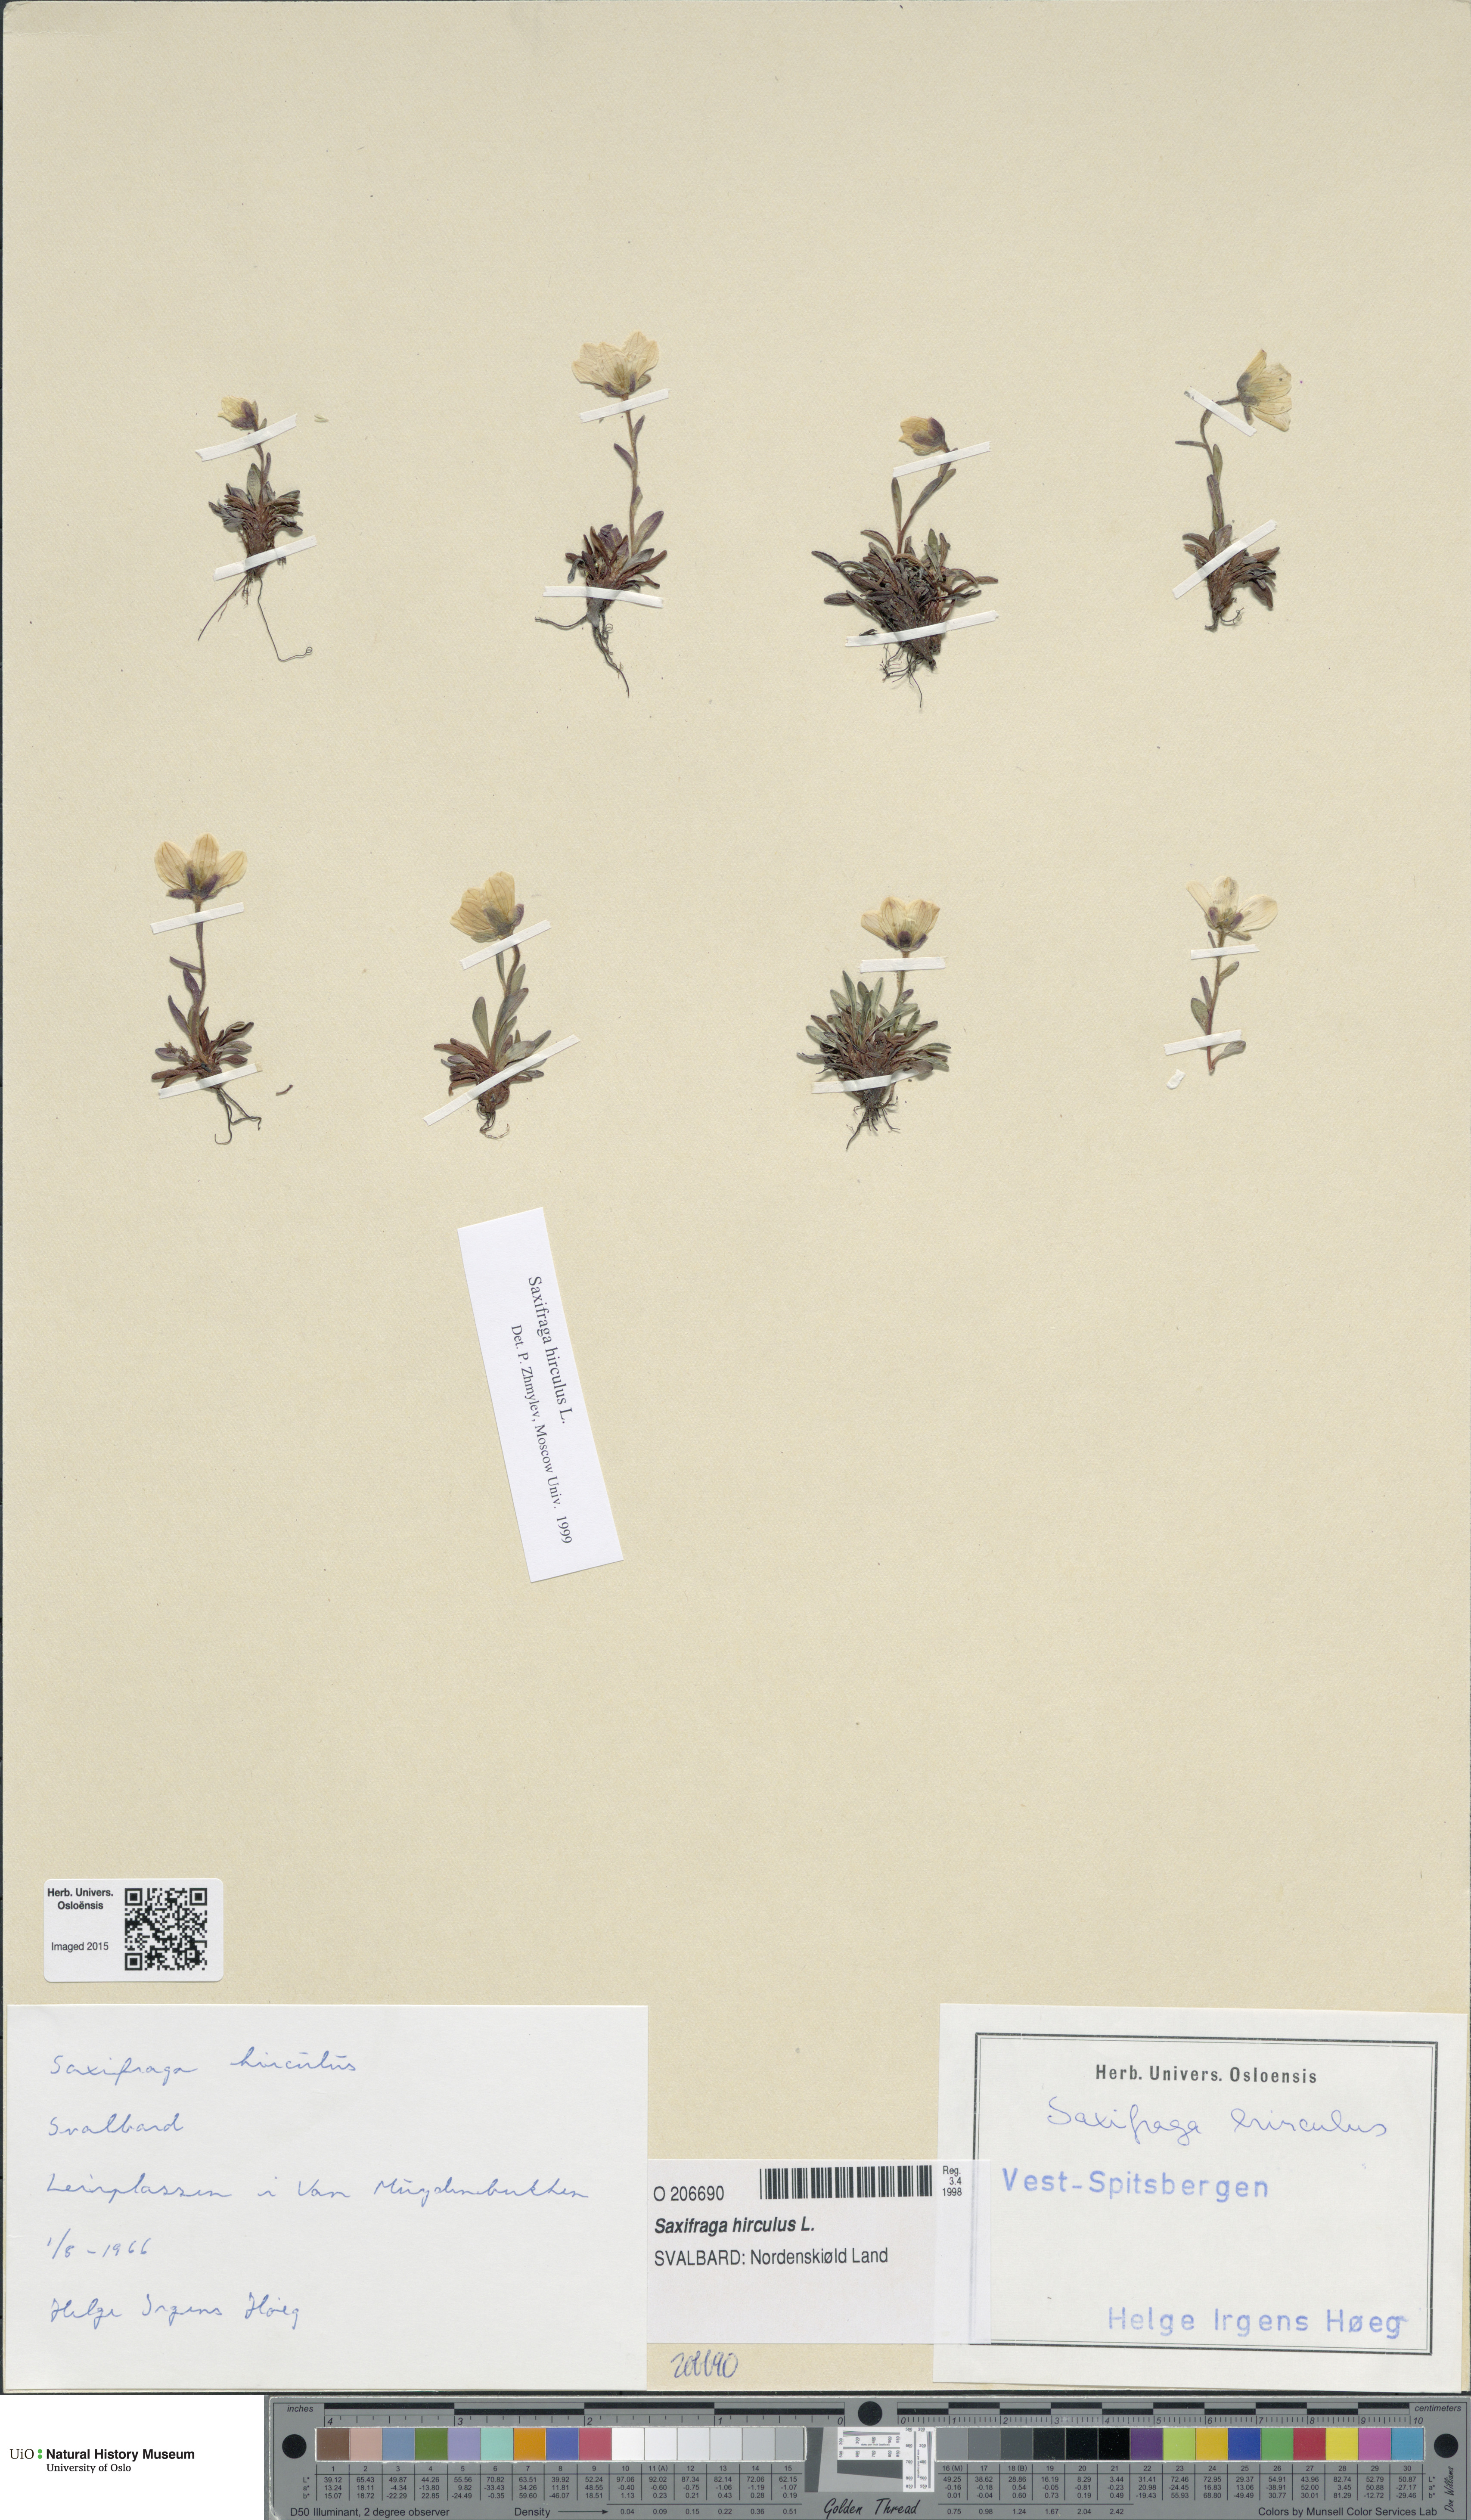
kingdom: Plantae
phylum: Tracheophyta
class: Magnoliopsida
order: Saxifragales
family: Saxifragaceae
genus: Saxifraga
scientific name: Saxifraga hirculus
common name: Yellow marsh saxifrage
